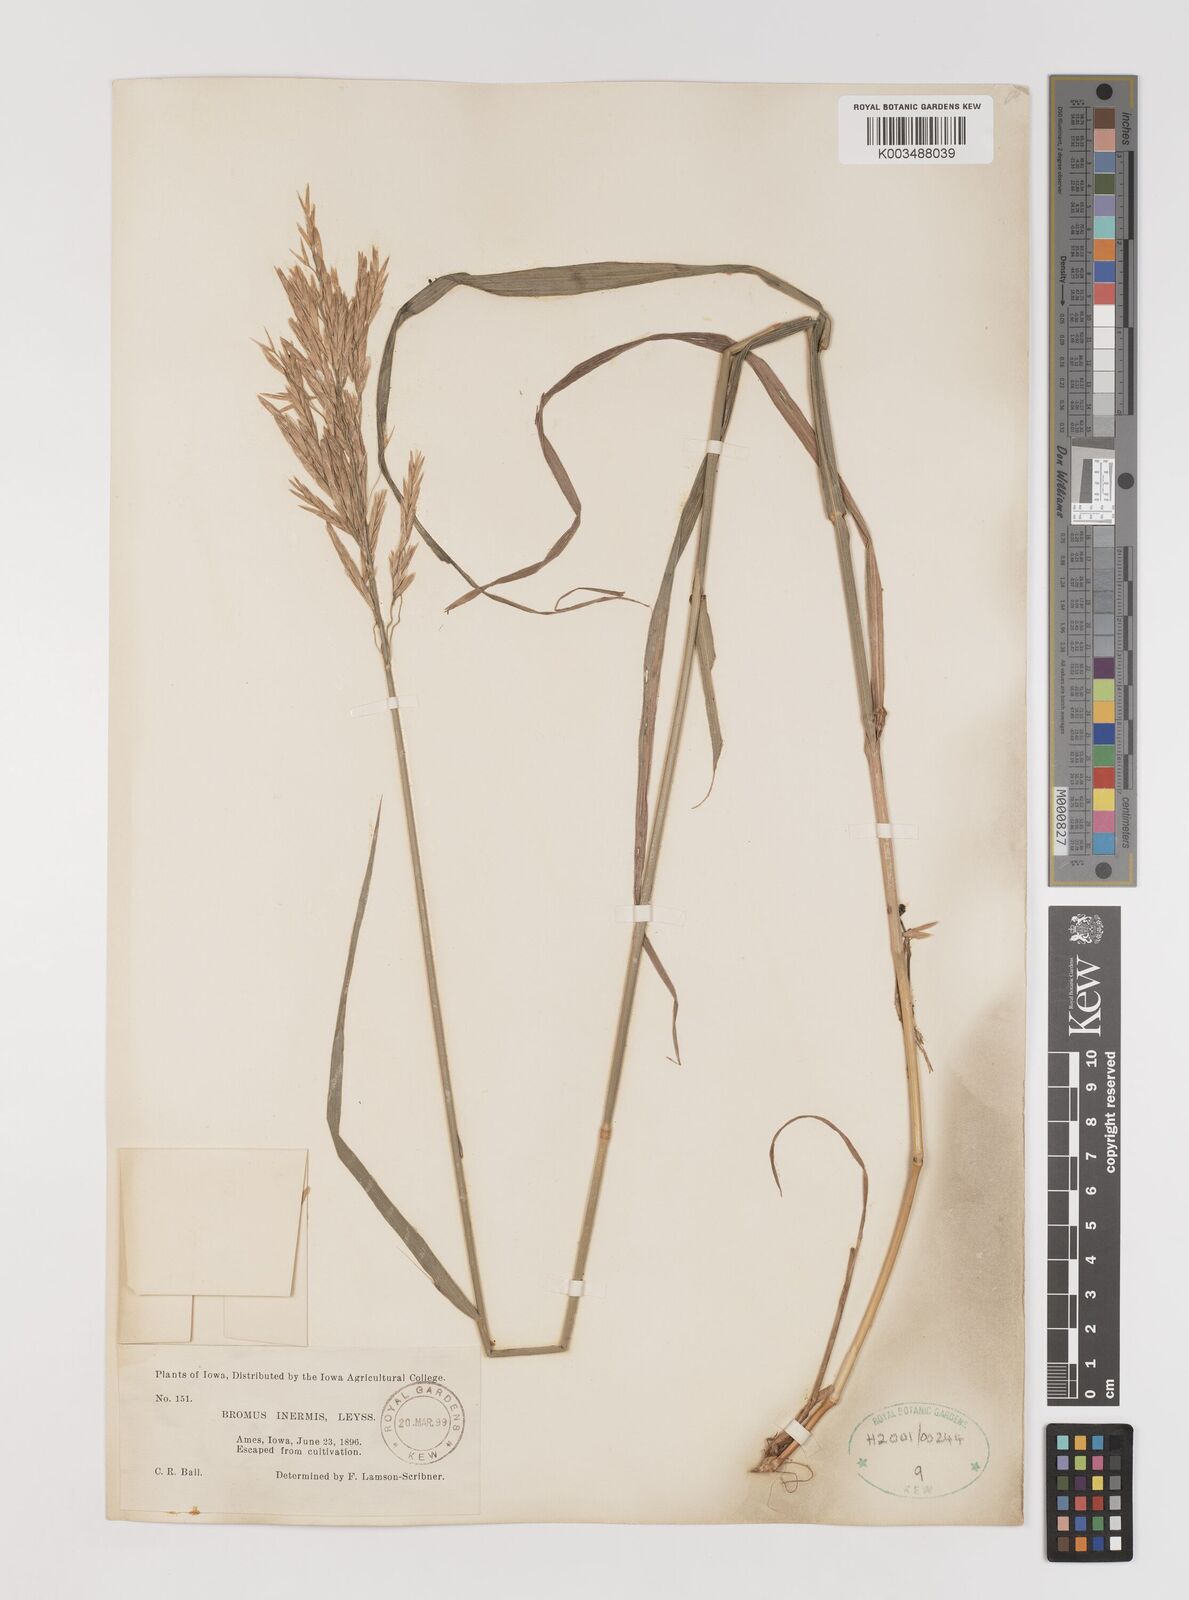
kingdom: Plantae
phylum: Tracheophyta
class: Liliopsida
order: Poales
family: Poaceae
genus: Bromus
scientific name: Bromus inermis
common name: Smooth brome
